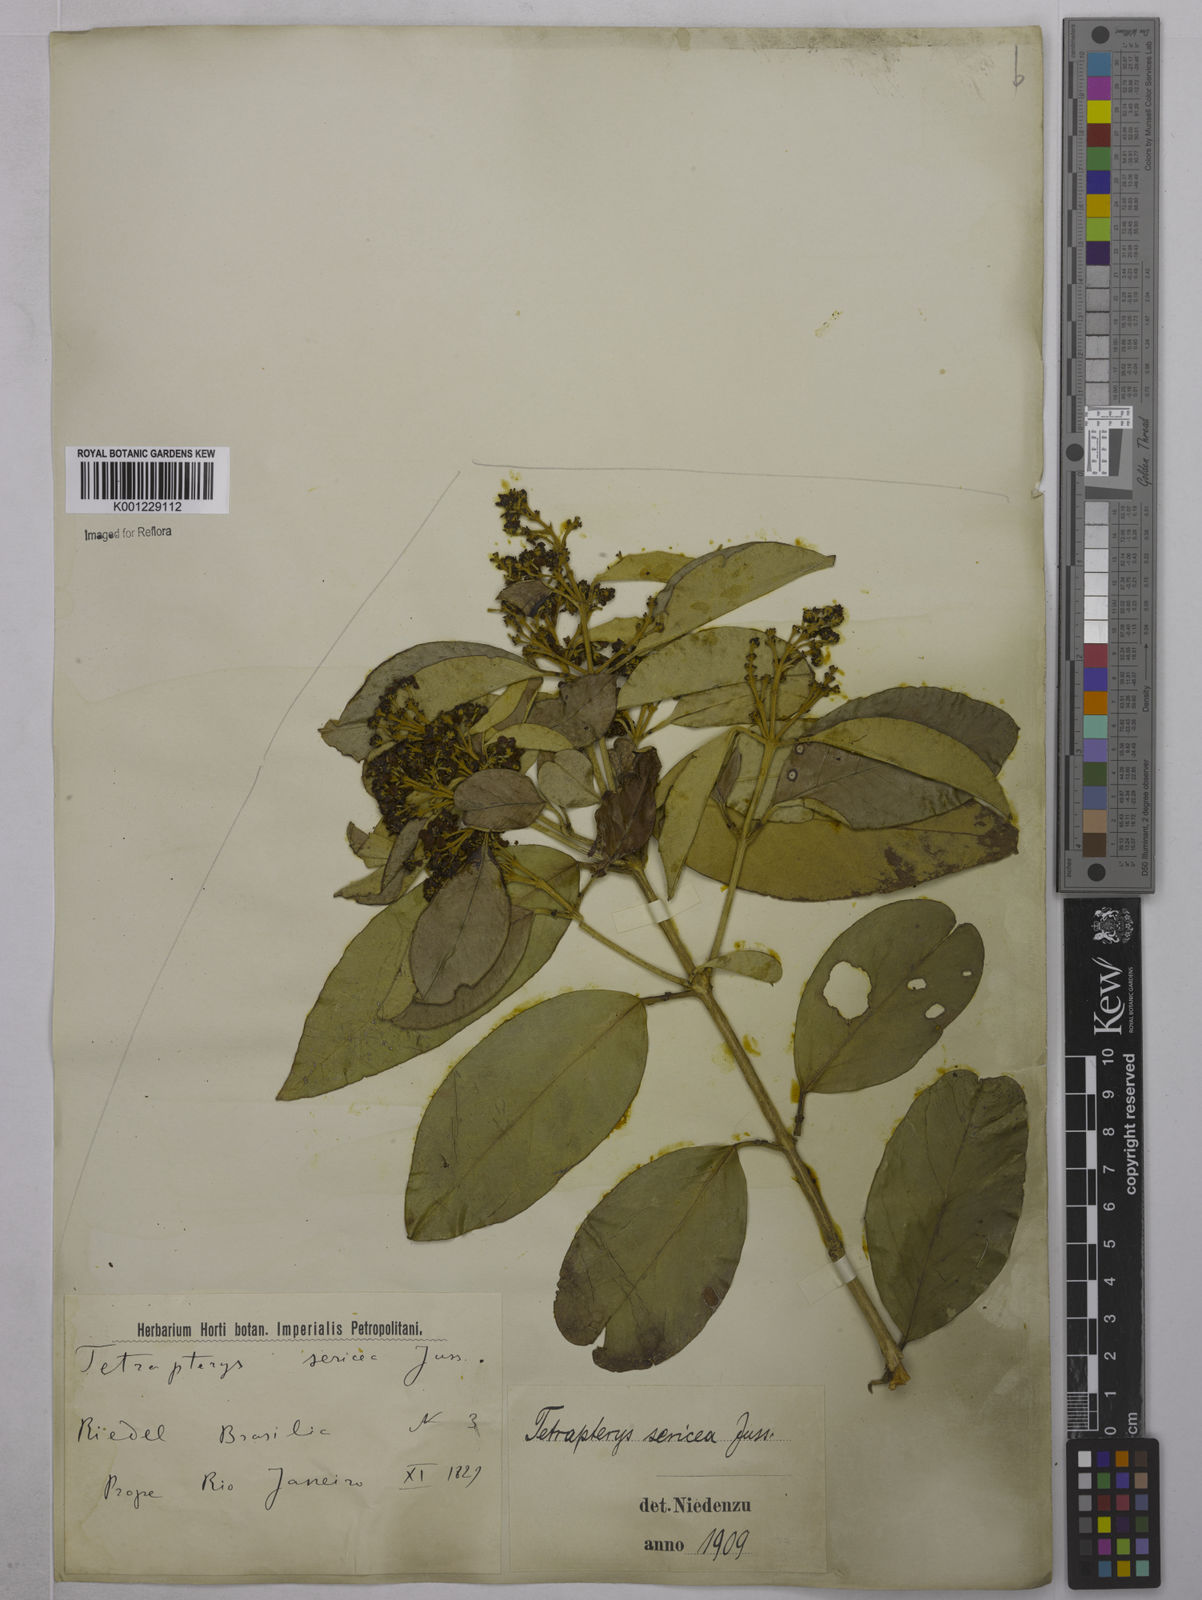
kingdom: Plantae
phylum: Tracheophyta
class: Magnoliopsida
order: Malpighiales
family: Malpighiaceae
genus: Niedenzuella
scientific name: Niedenzuella sericea
